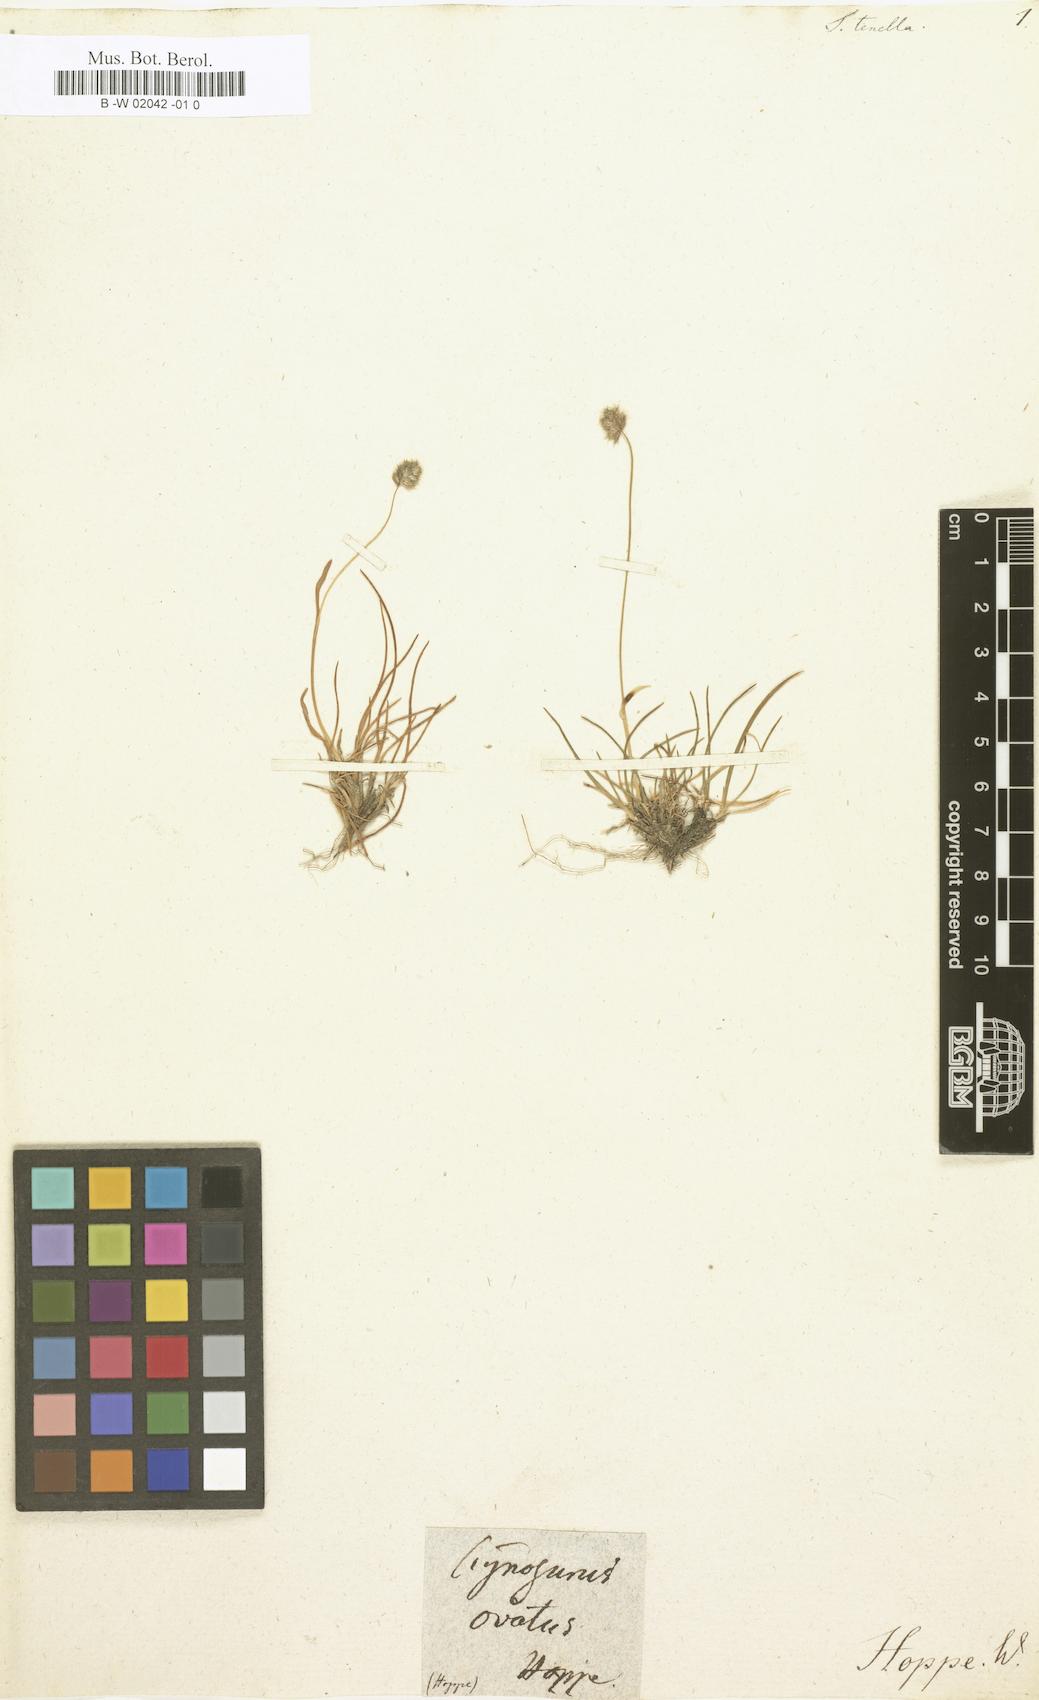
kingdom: Plantae
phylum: Tracheophyta
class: Liliopsida
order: Poales
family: Poaceae
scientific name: Poaceae
